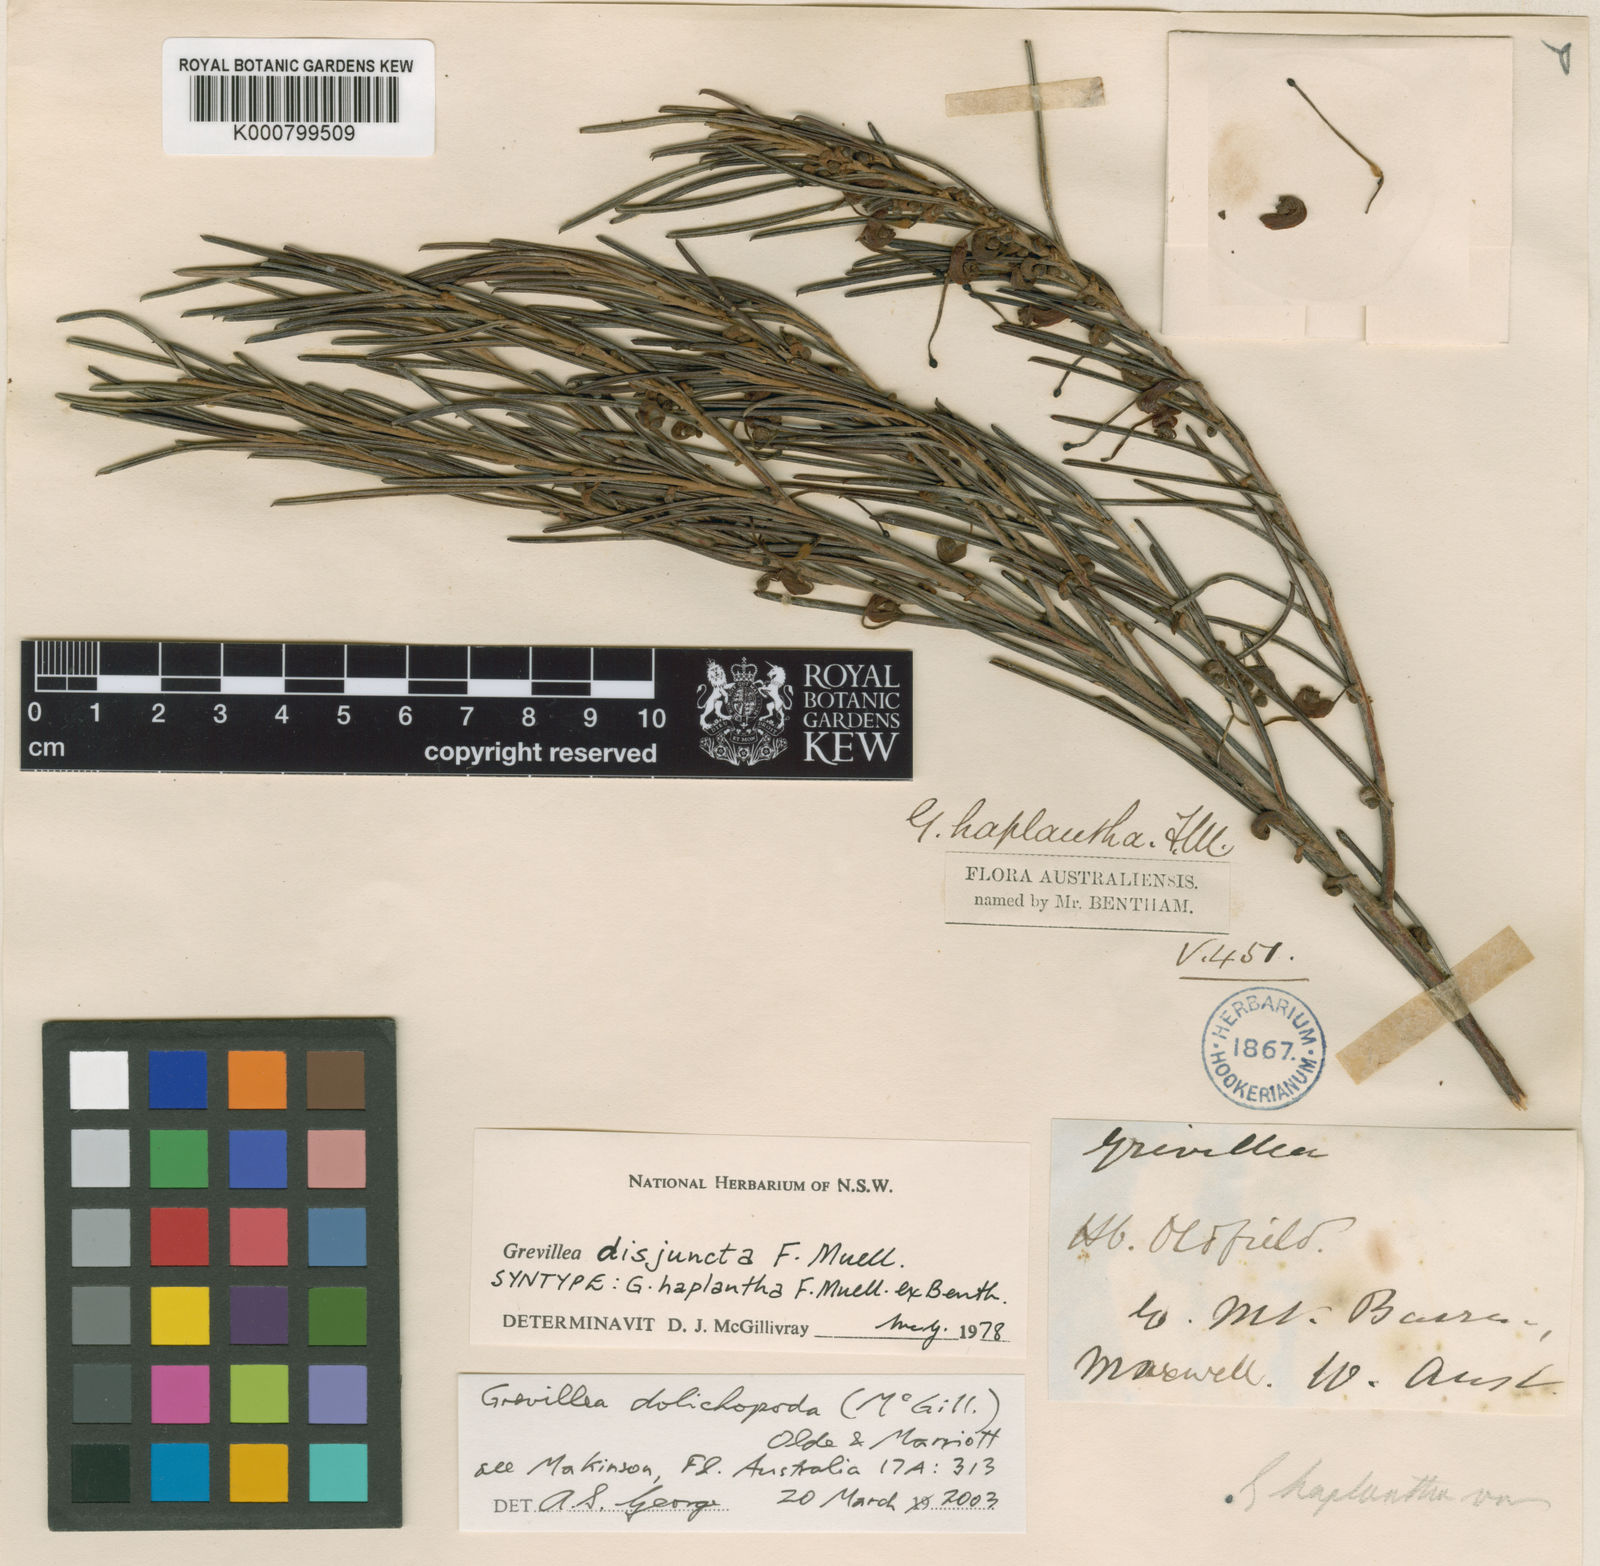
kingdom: Plantae
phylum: Tracheophyta
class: Magnoliopsida
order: Proteales
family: Proteaceae
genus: Grevillea
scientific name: Grevillea disjuncta
